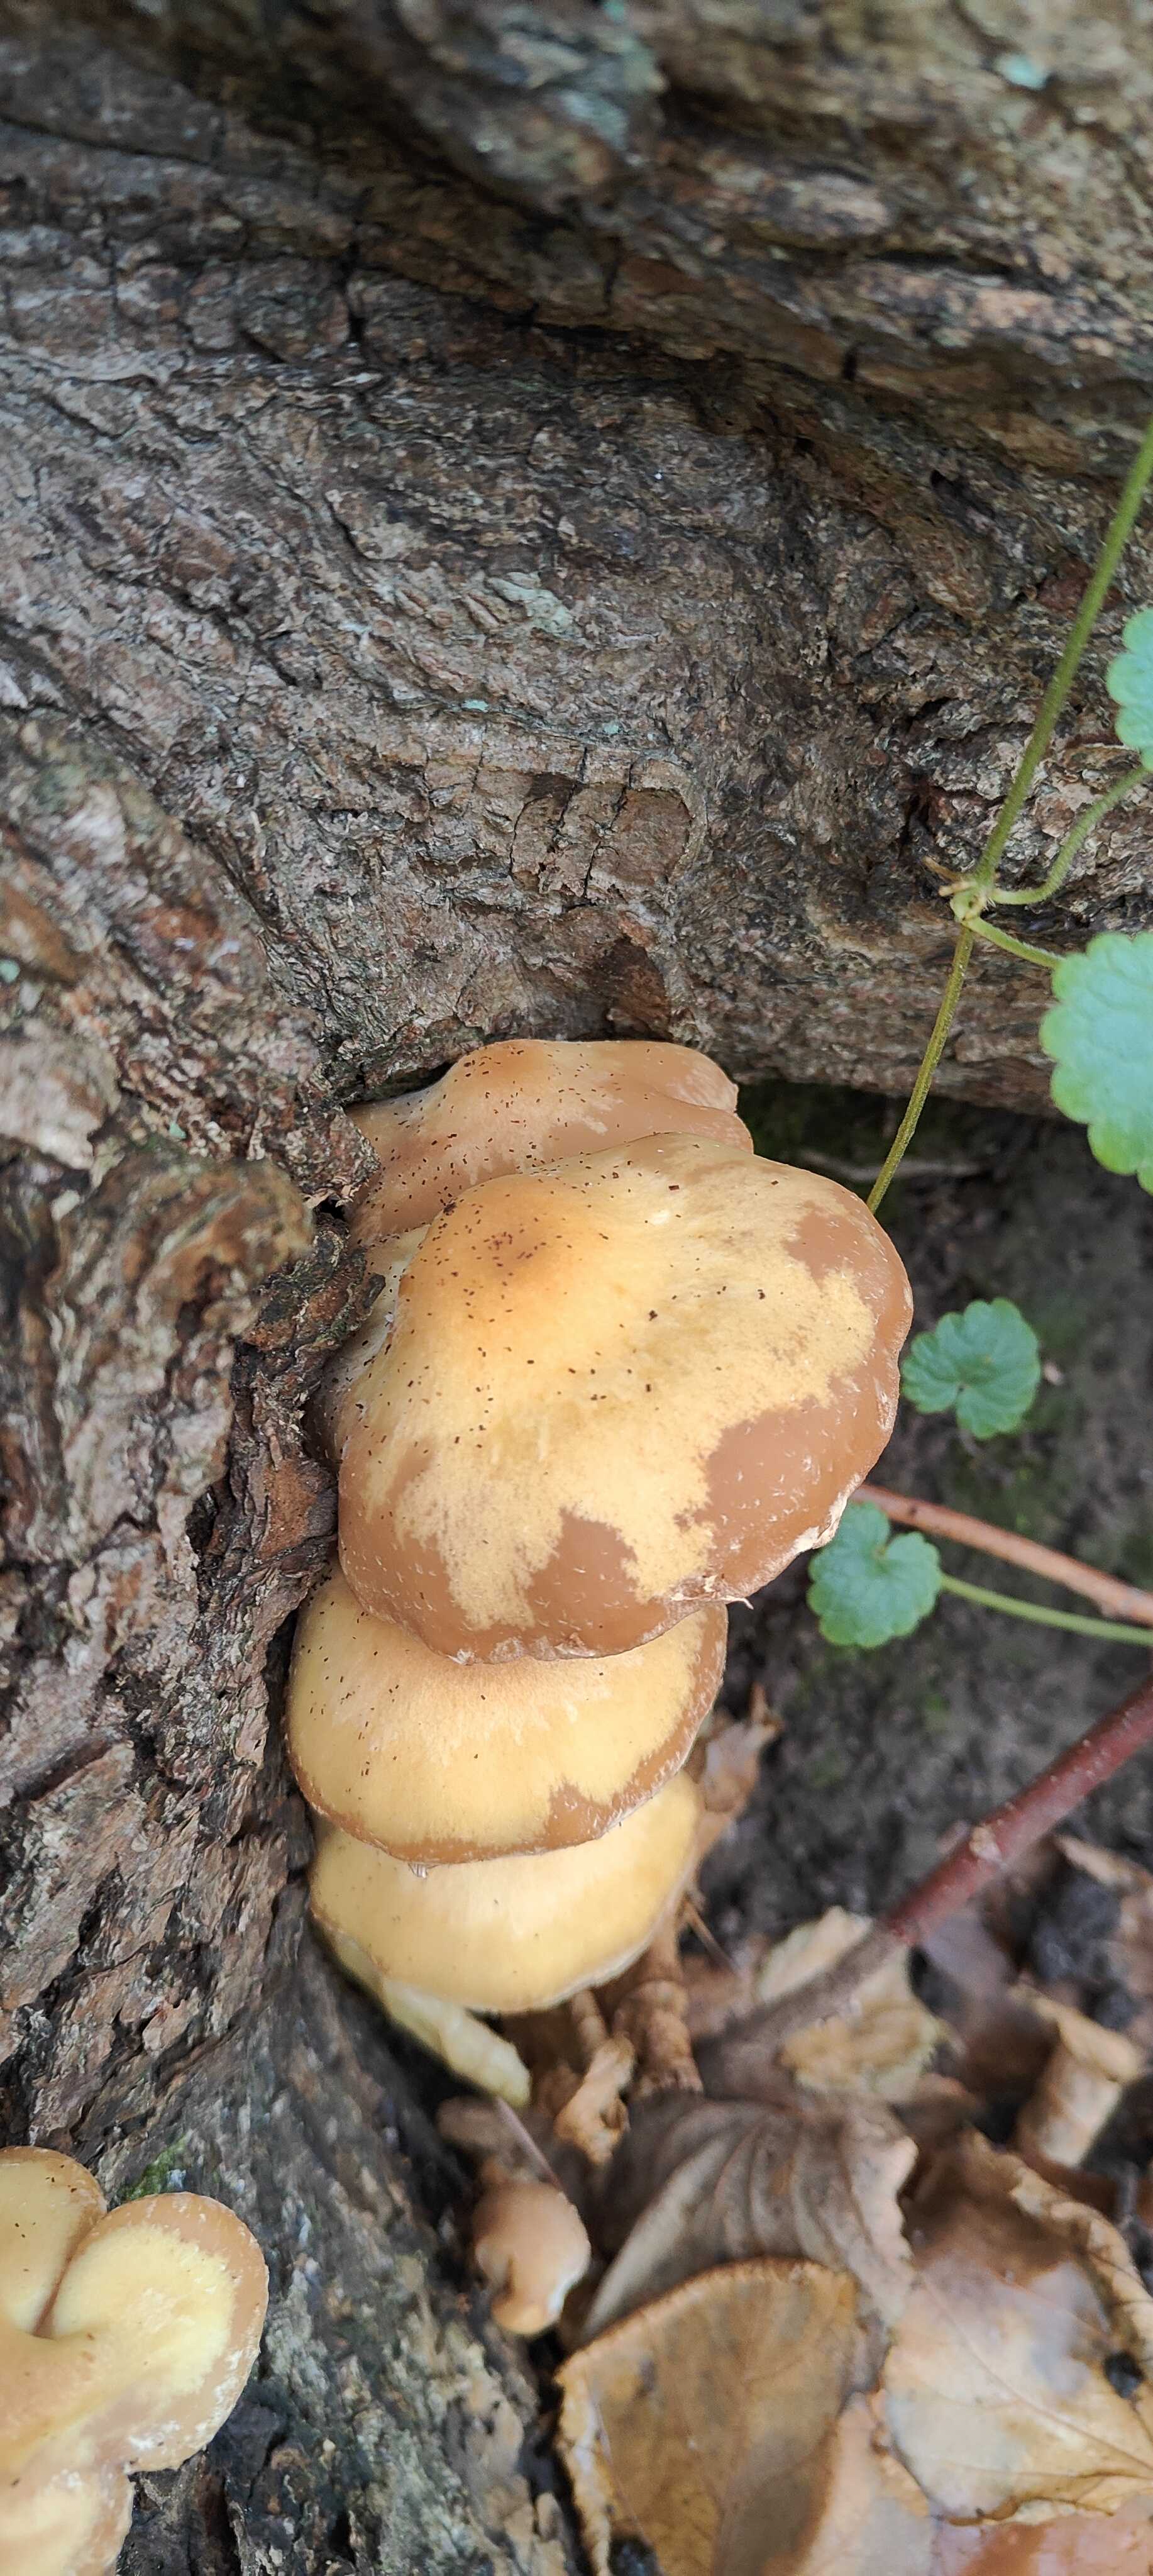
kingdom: Fungi
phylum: Basidiomycota
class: Agaricomycetes
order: Agaricales
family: Strophariaceae
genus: Kuehneromyces
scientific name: Kuehneromyces mutabilis
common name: foranderlig skælhat
